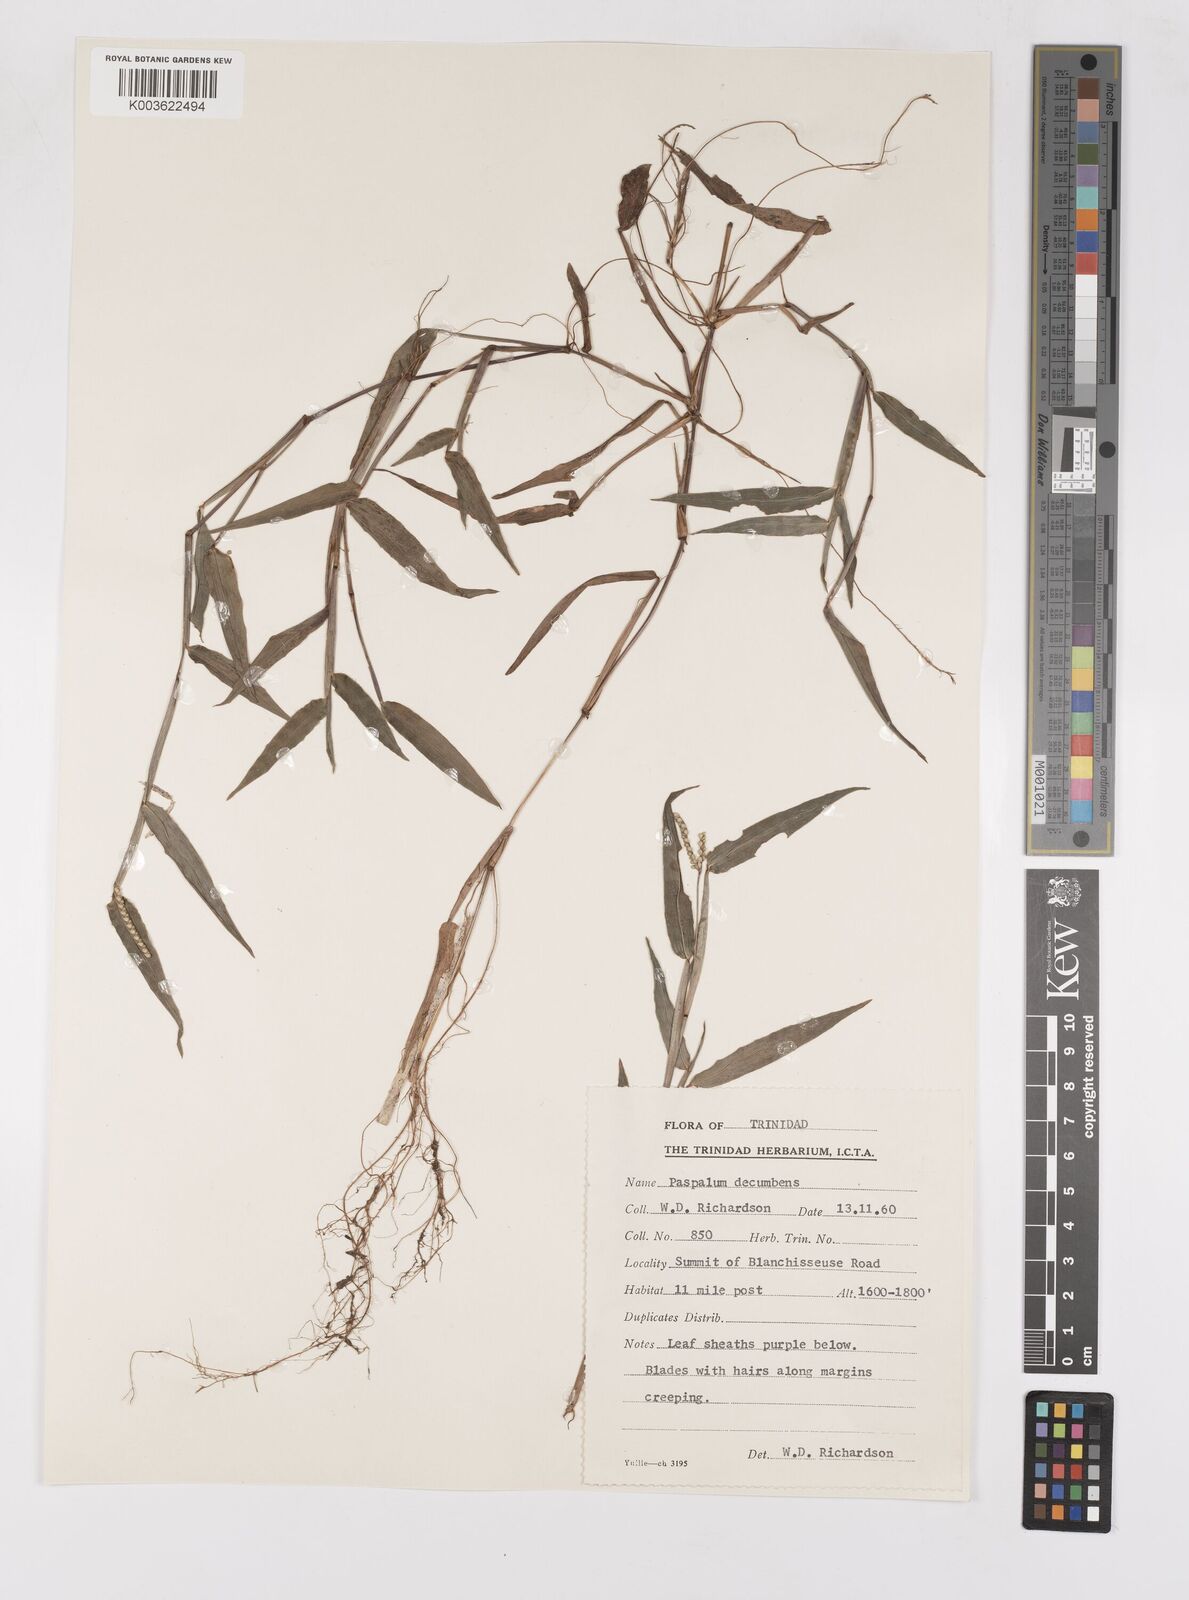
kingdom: Plantae
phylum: Tracheophyta
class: Liliopsida
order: Poales
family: Poaceae
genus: Paspalum
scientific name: Paspalum decumbens
